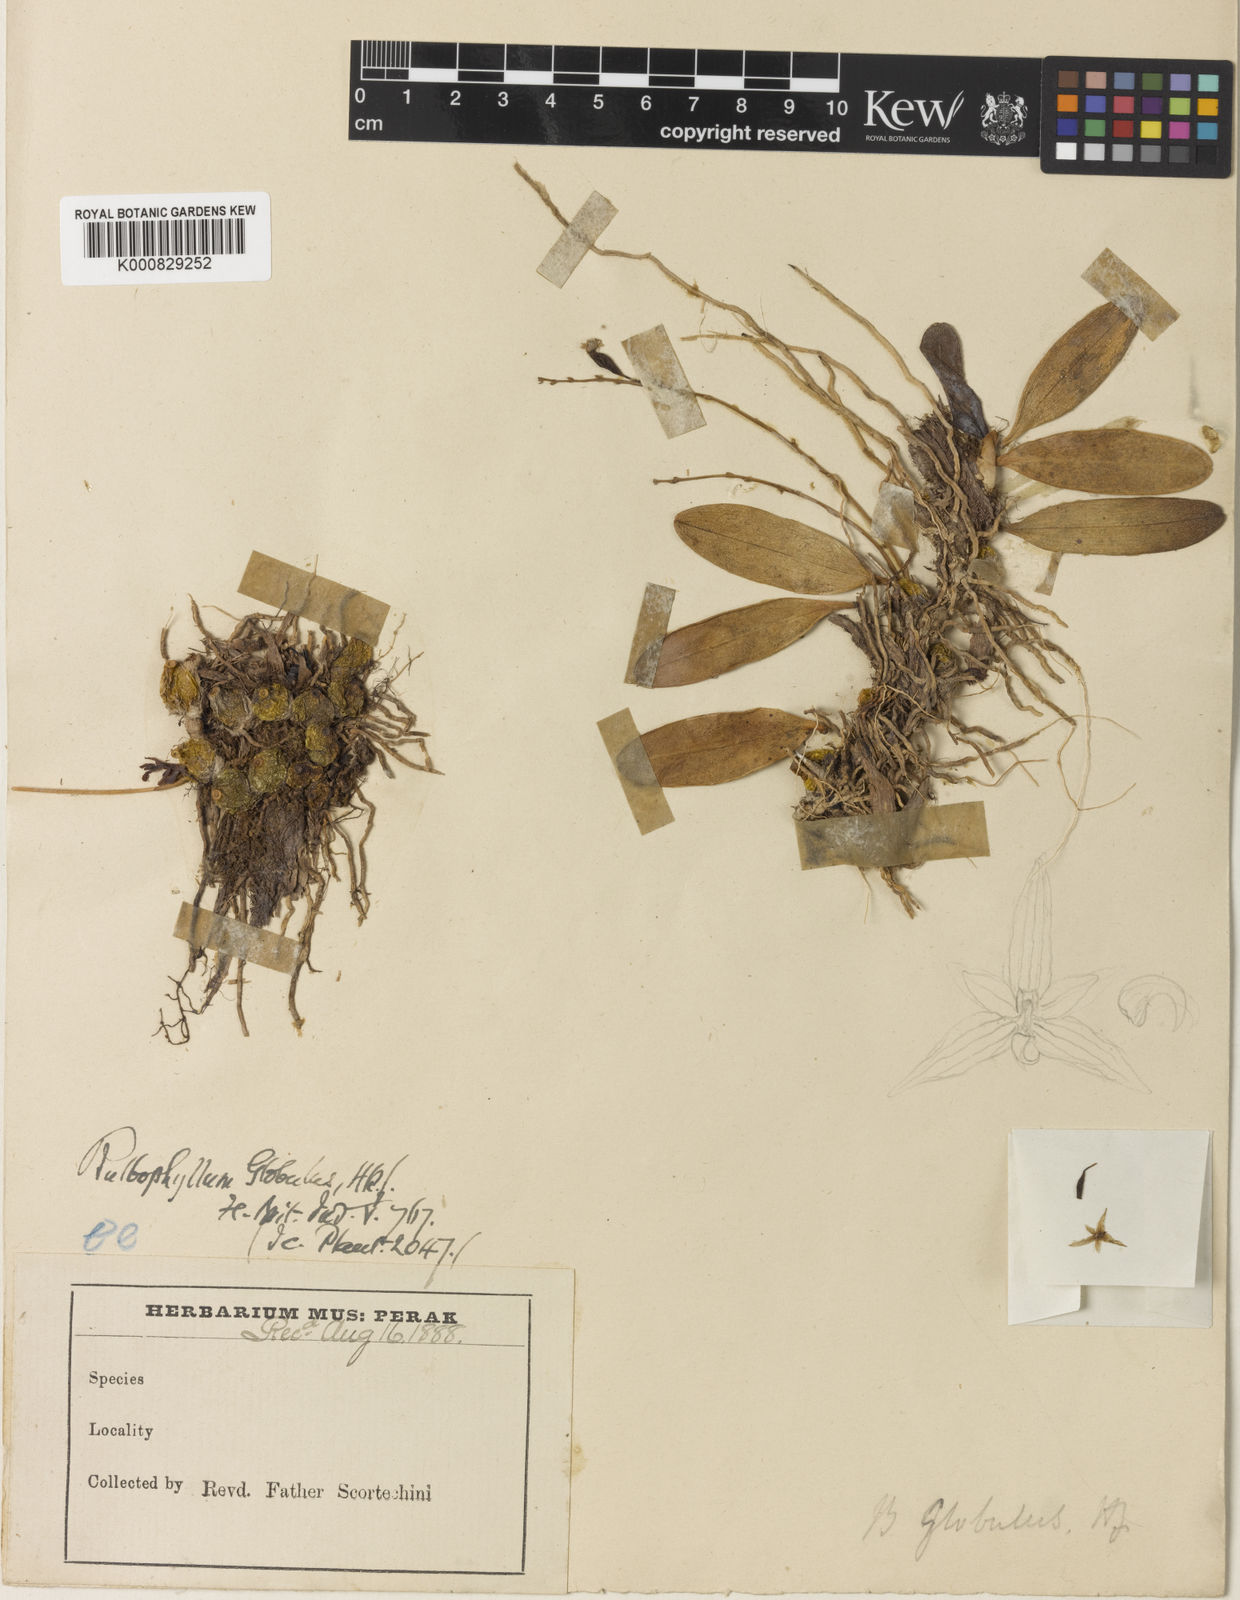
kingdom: Plantae
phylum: Tracheophyta
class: Liliopsida
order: Asparagales
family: Orchidaceae
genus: Bulbophyllum
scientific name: Bulbophyllum globulus
